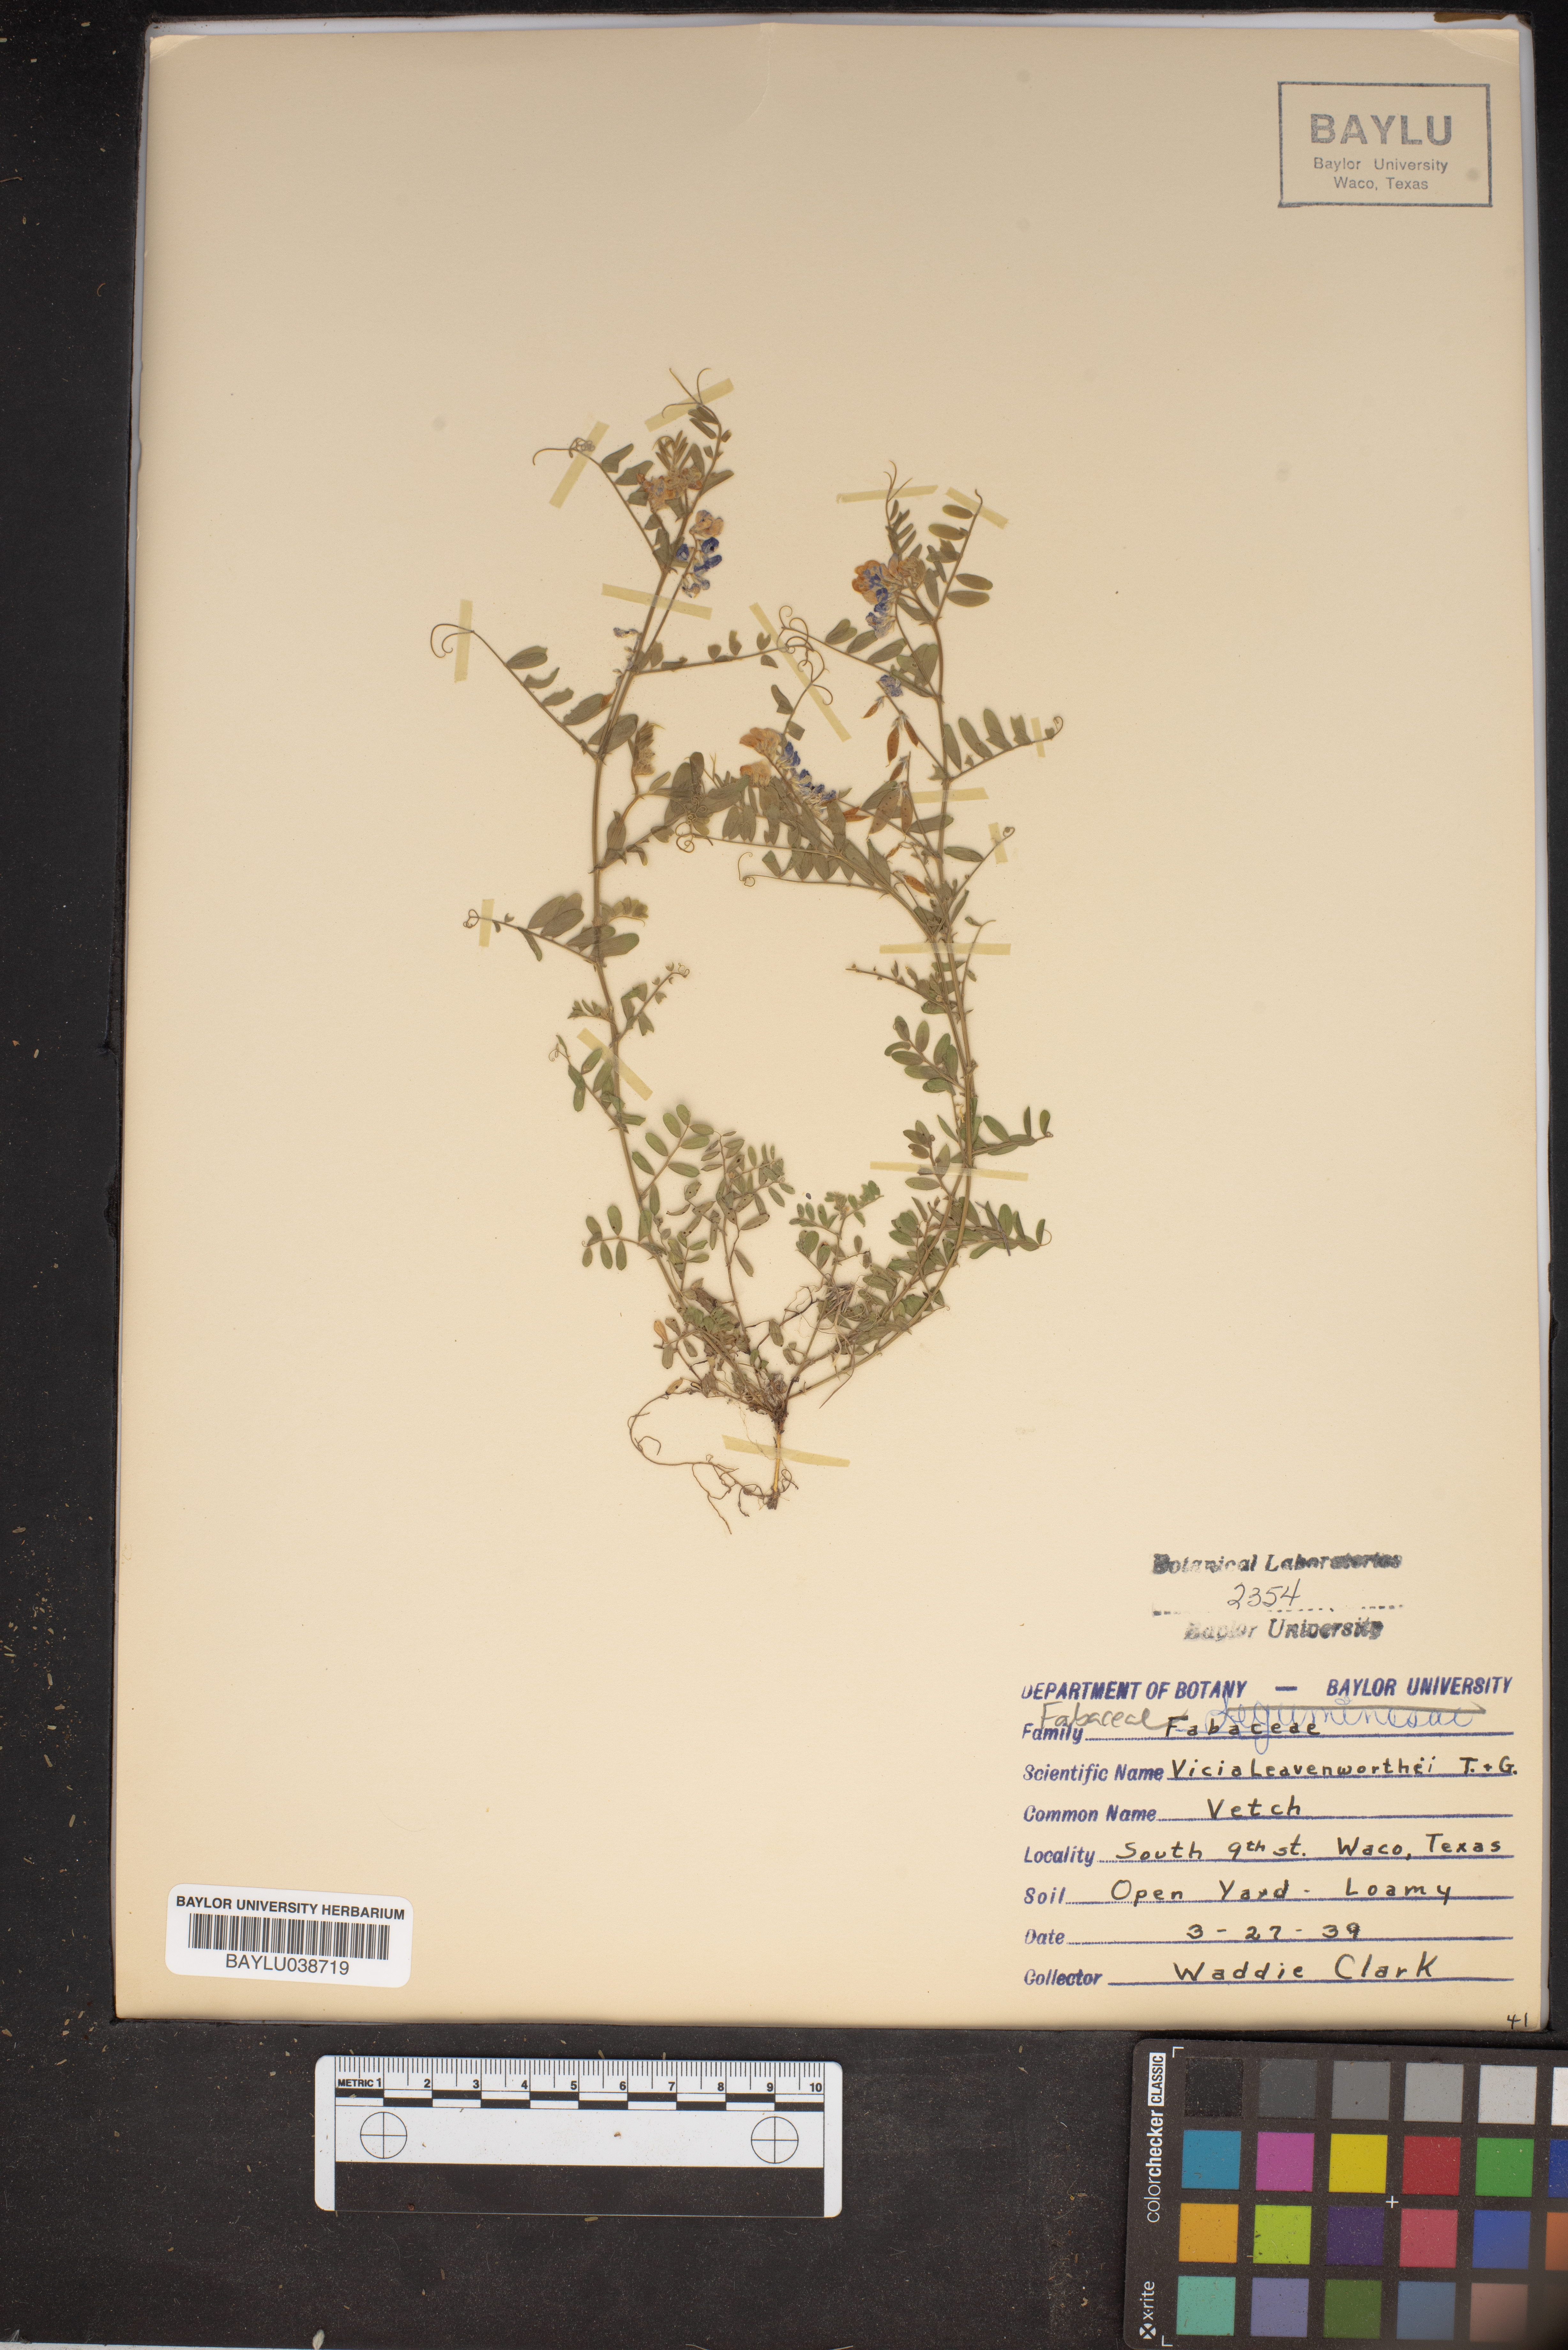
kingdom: Plantae
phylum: Tracheophyta
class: Magnoliopsida
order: Fabales
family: Fabaceae
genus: Vicia
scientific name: Vicia ludoviciana
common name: Louisiana vetch
